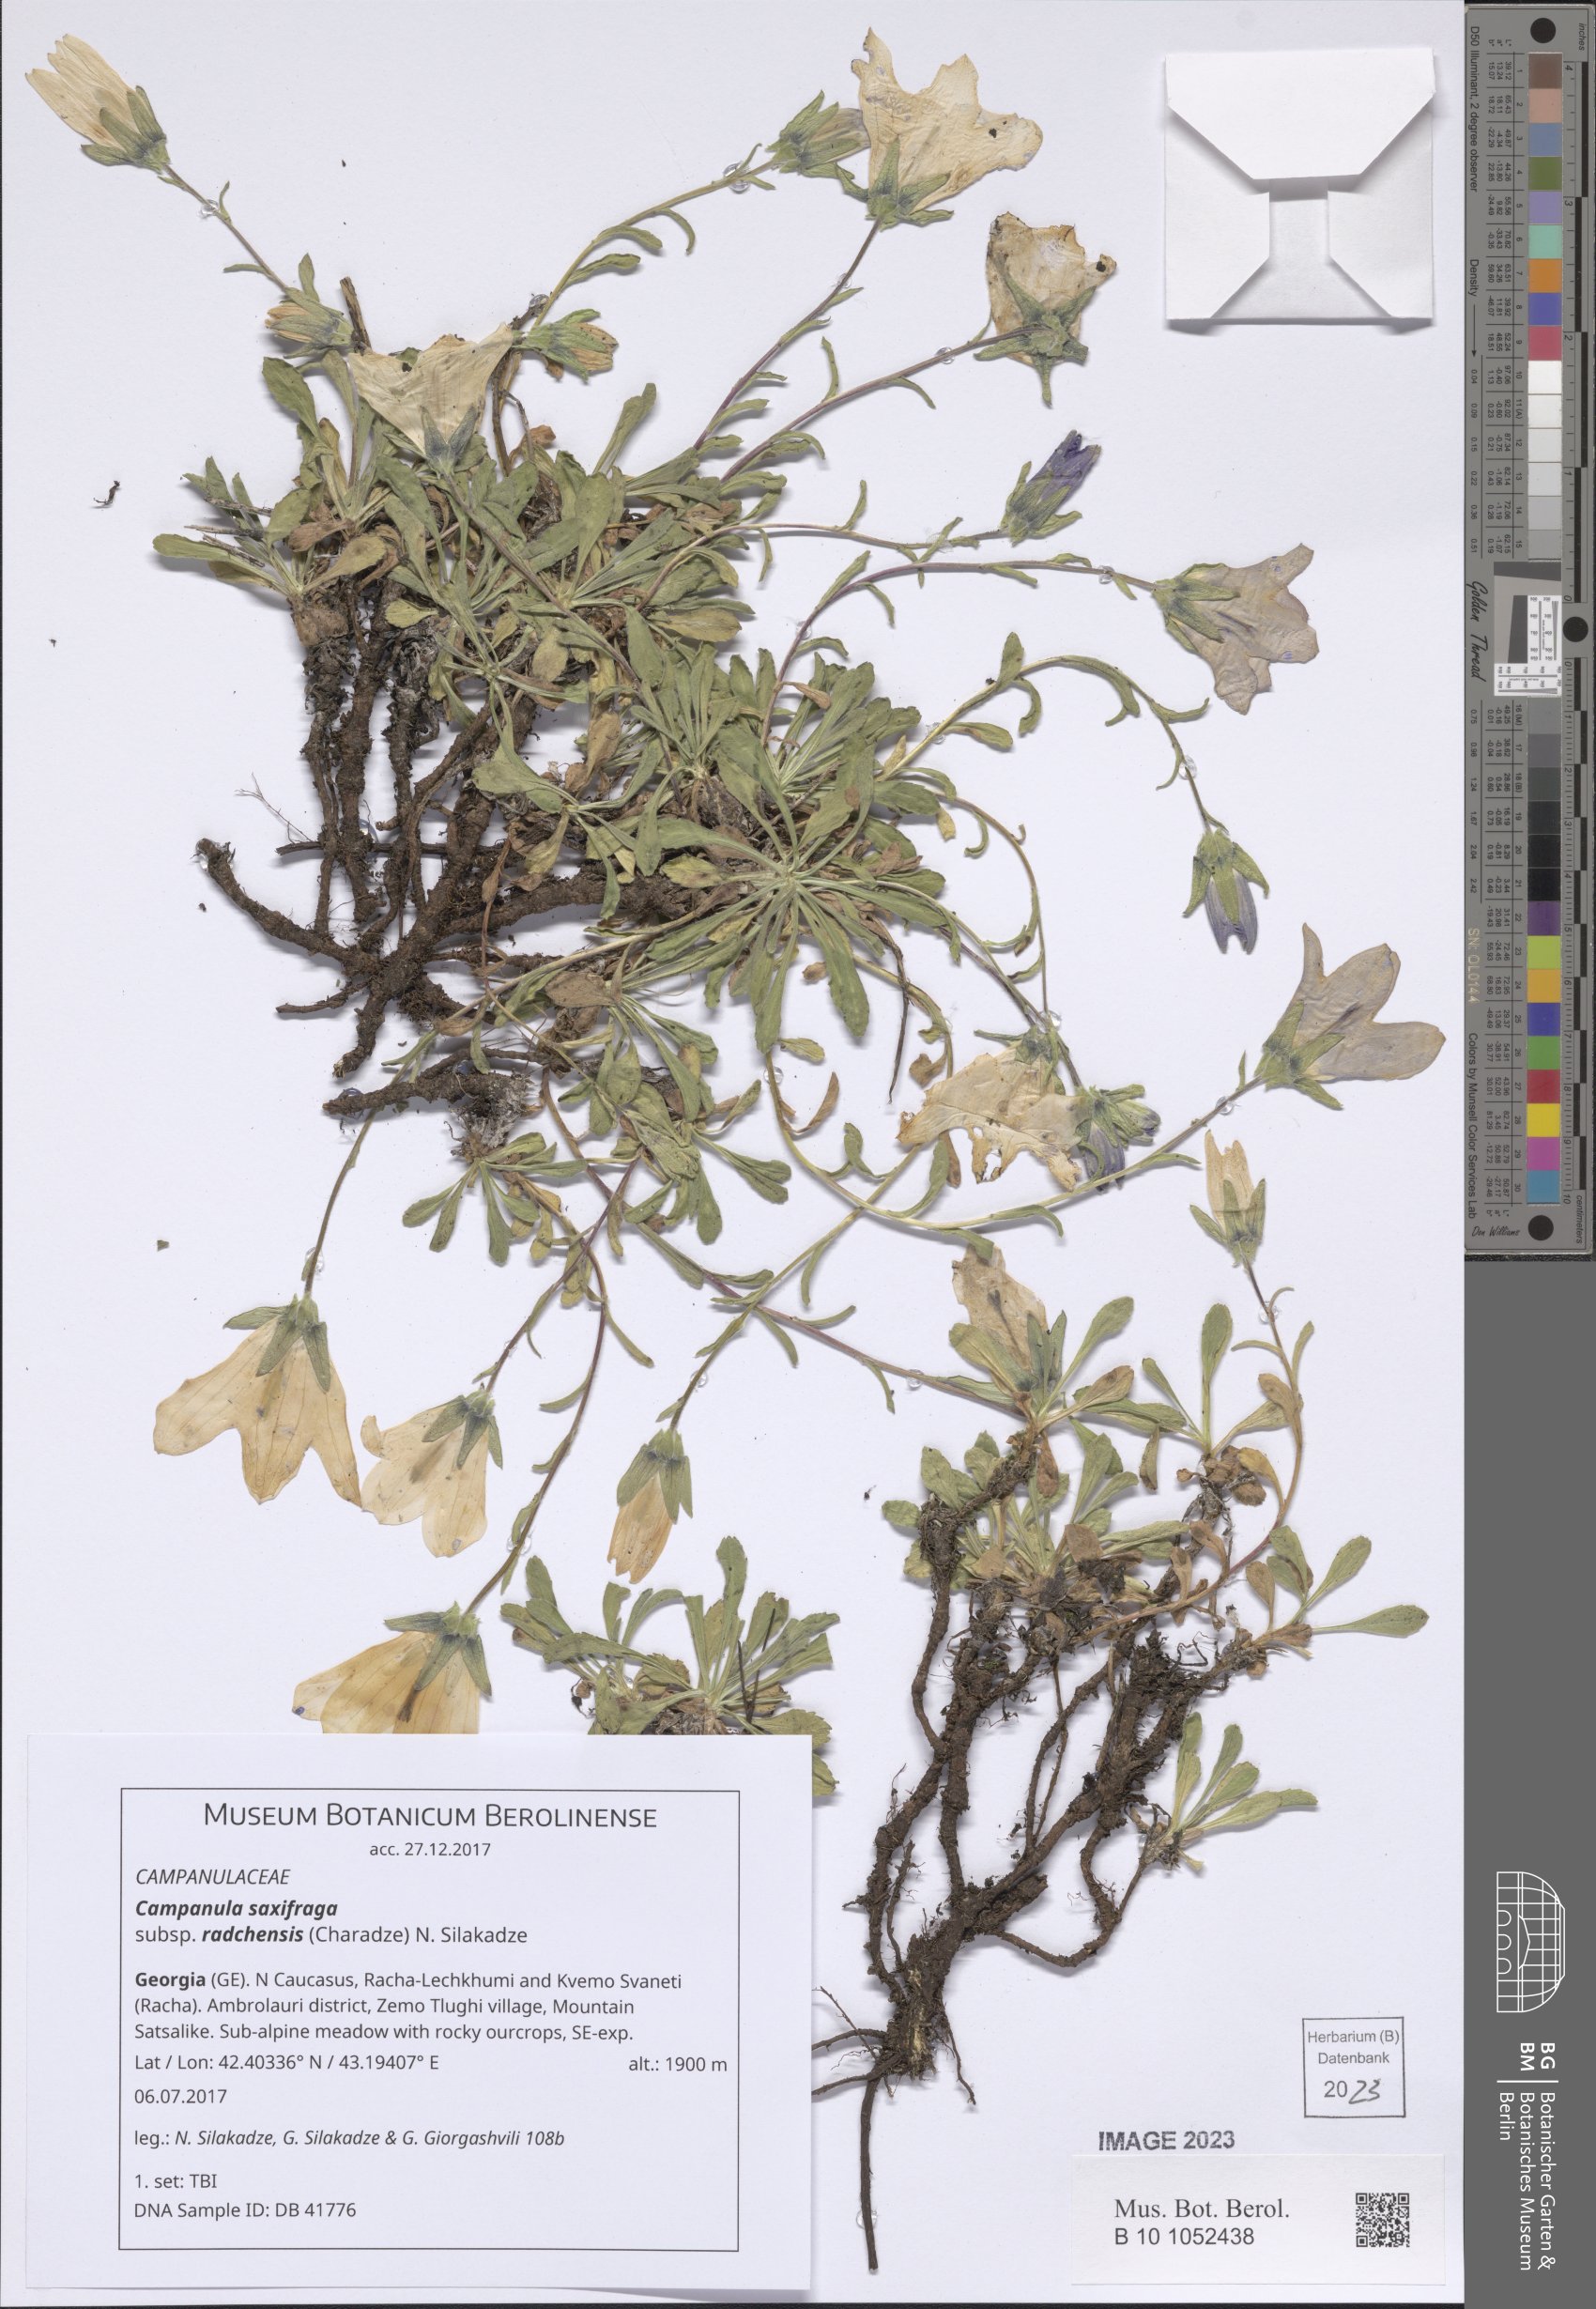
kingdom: Plantae
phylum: Tracheophyta
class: Magnoliopsida
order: Asterales
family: Campanulaceae
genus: Campanula
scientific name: Campanula saxifraga
